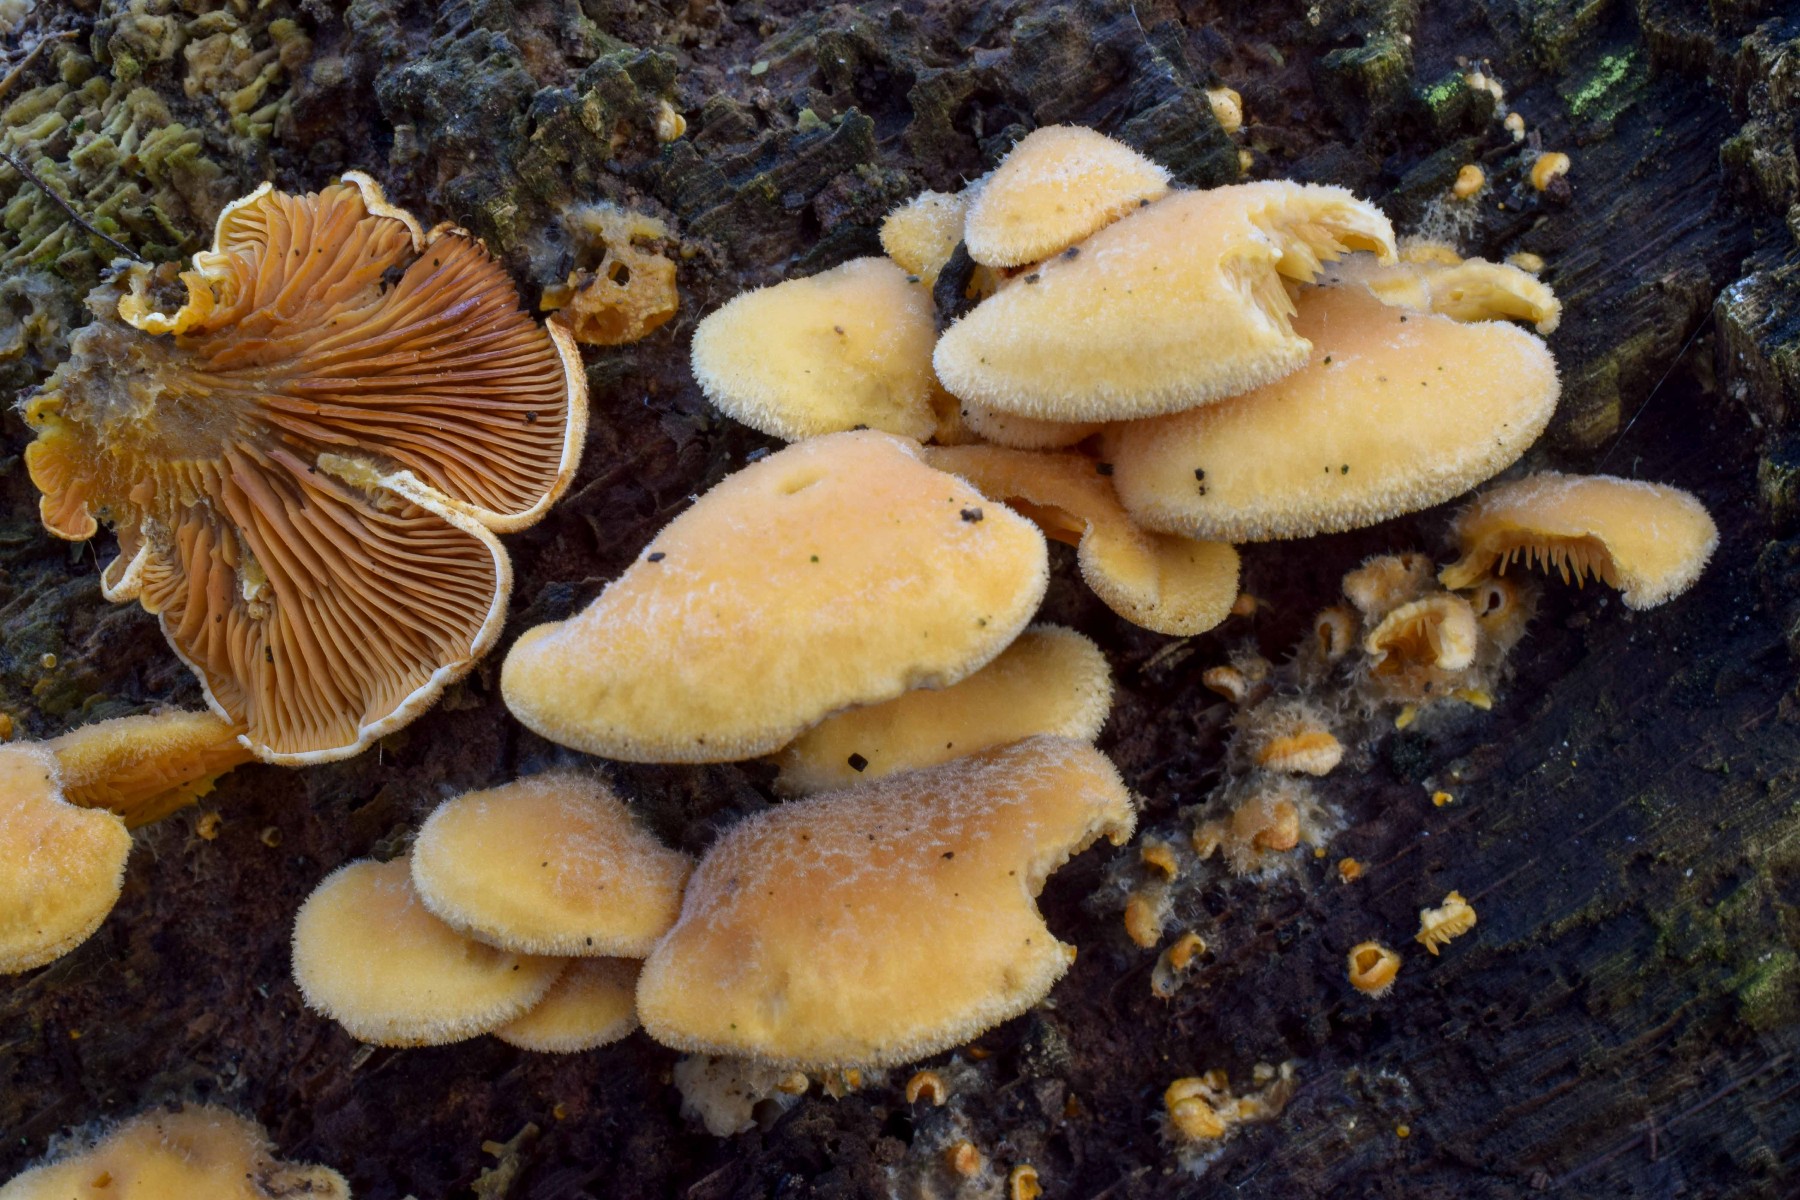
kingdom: Fungi
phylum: Basidiomycota
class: Agaricomycetes
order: Agaricales
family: Phyllotopsidaceae
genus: Phyllotopsis
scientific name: Phyllotopsis nidulans
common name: okkerblad
